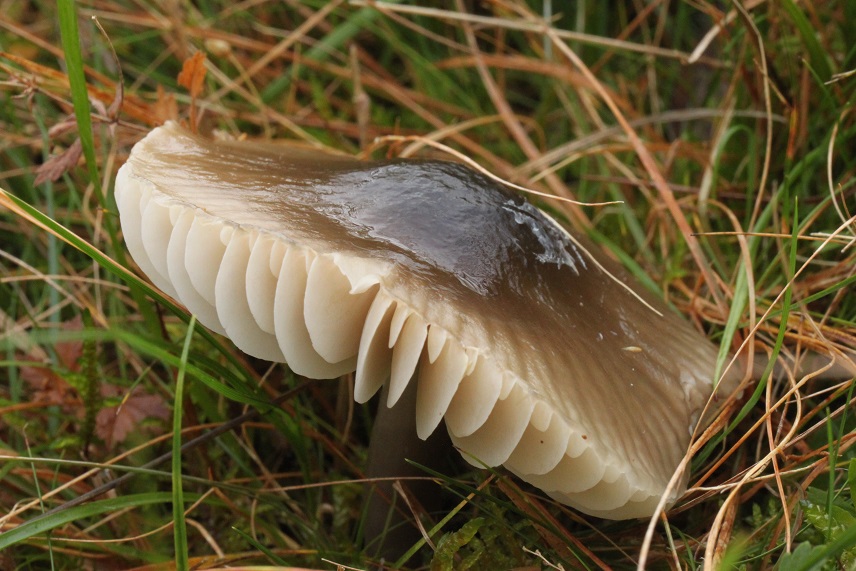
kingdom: Fungi
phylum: Basidiomycota
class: Agaricomycetes
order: Agaricales
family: Hygrophoraceae
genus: Gliophorus
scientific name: Gliophorus irrigatus
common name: slimet vokshat
